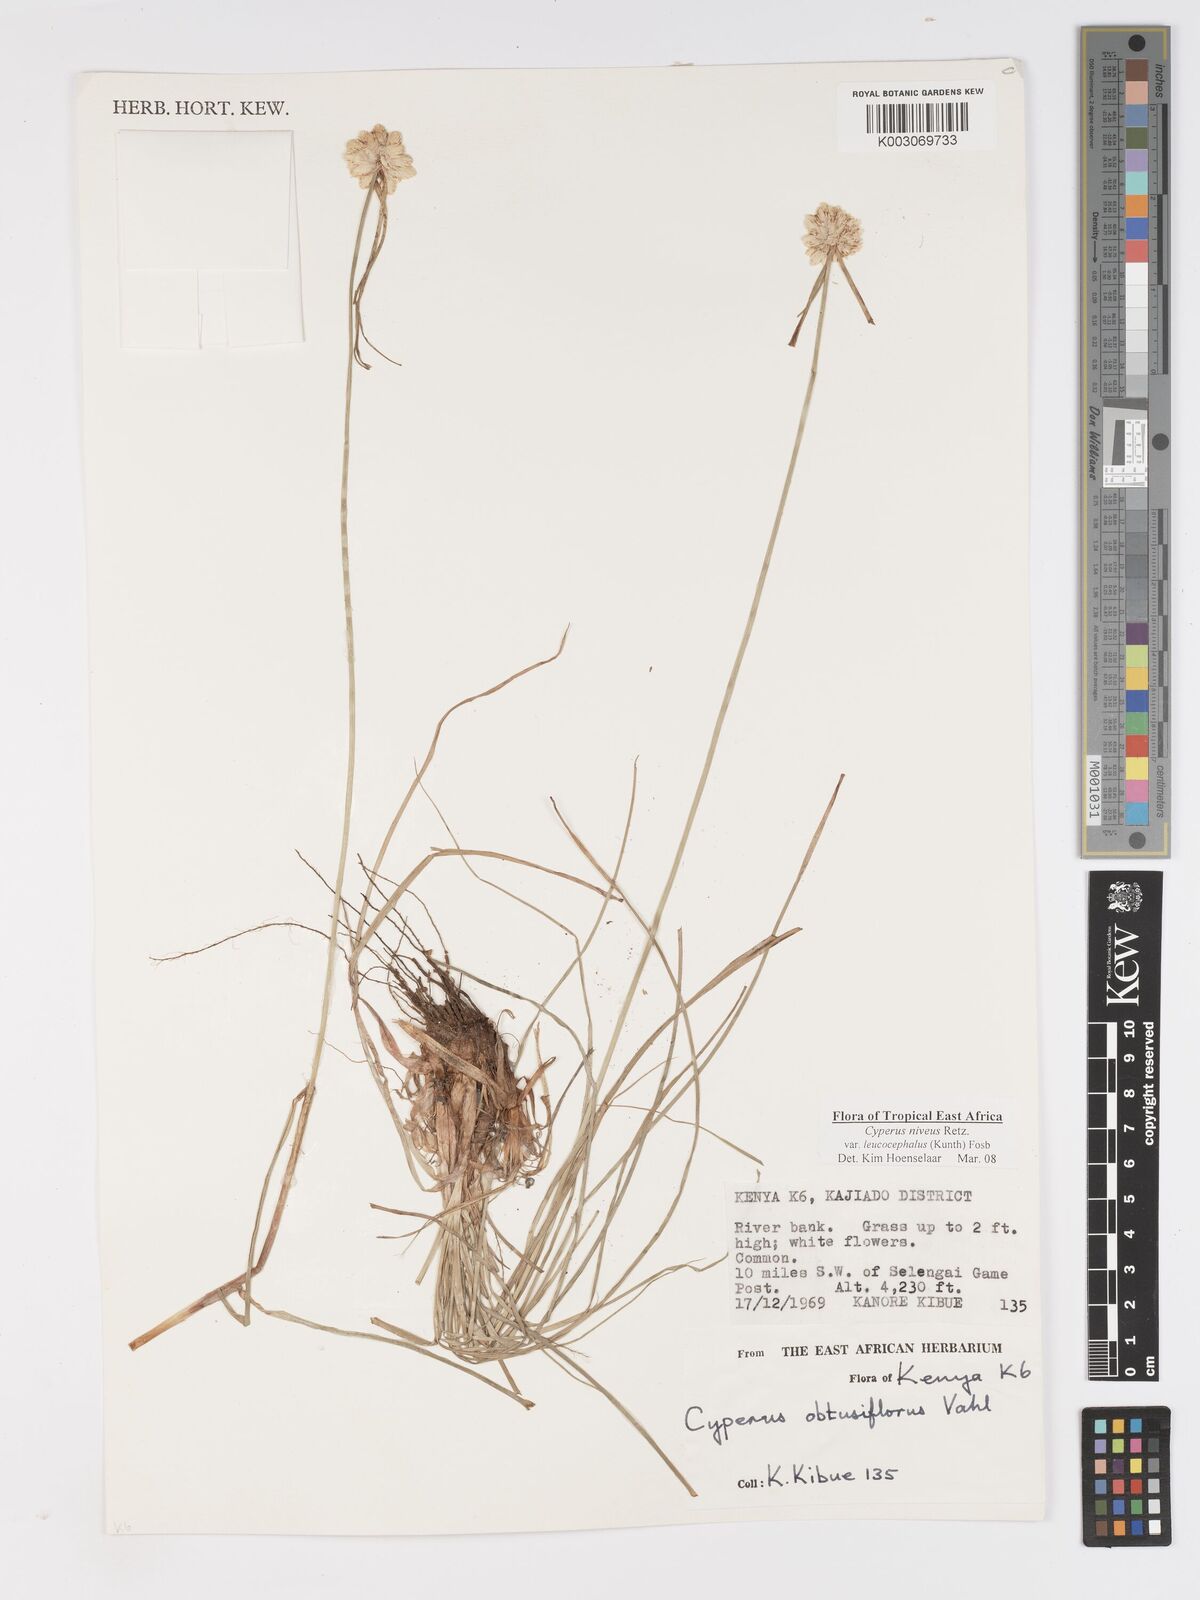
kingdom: Plantae
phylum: Tracheophyta
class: Liliopsida
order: Poales
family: Cyperaceae
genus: Cyperus
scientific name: Cyperus niveus
